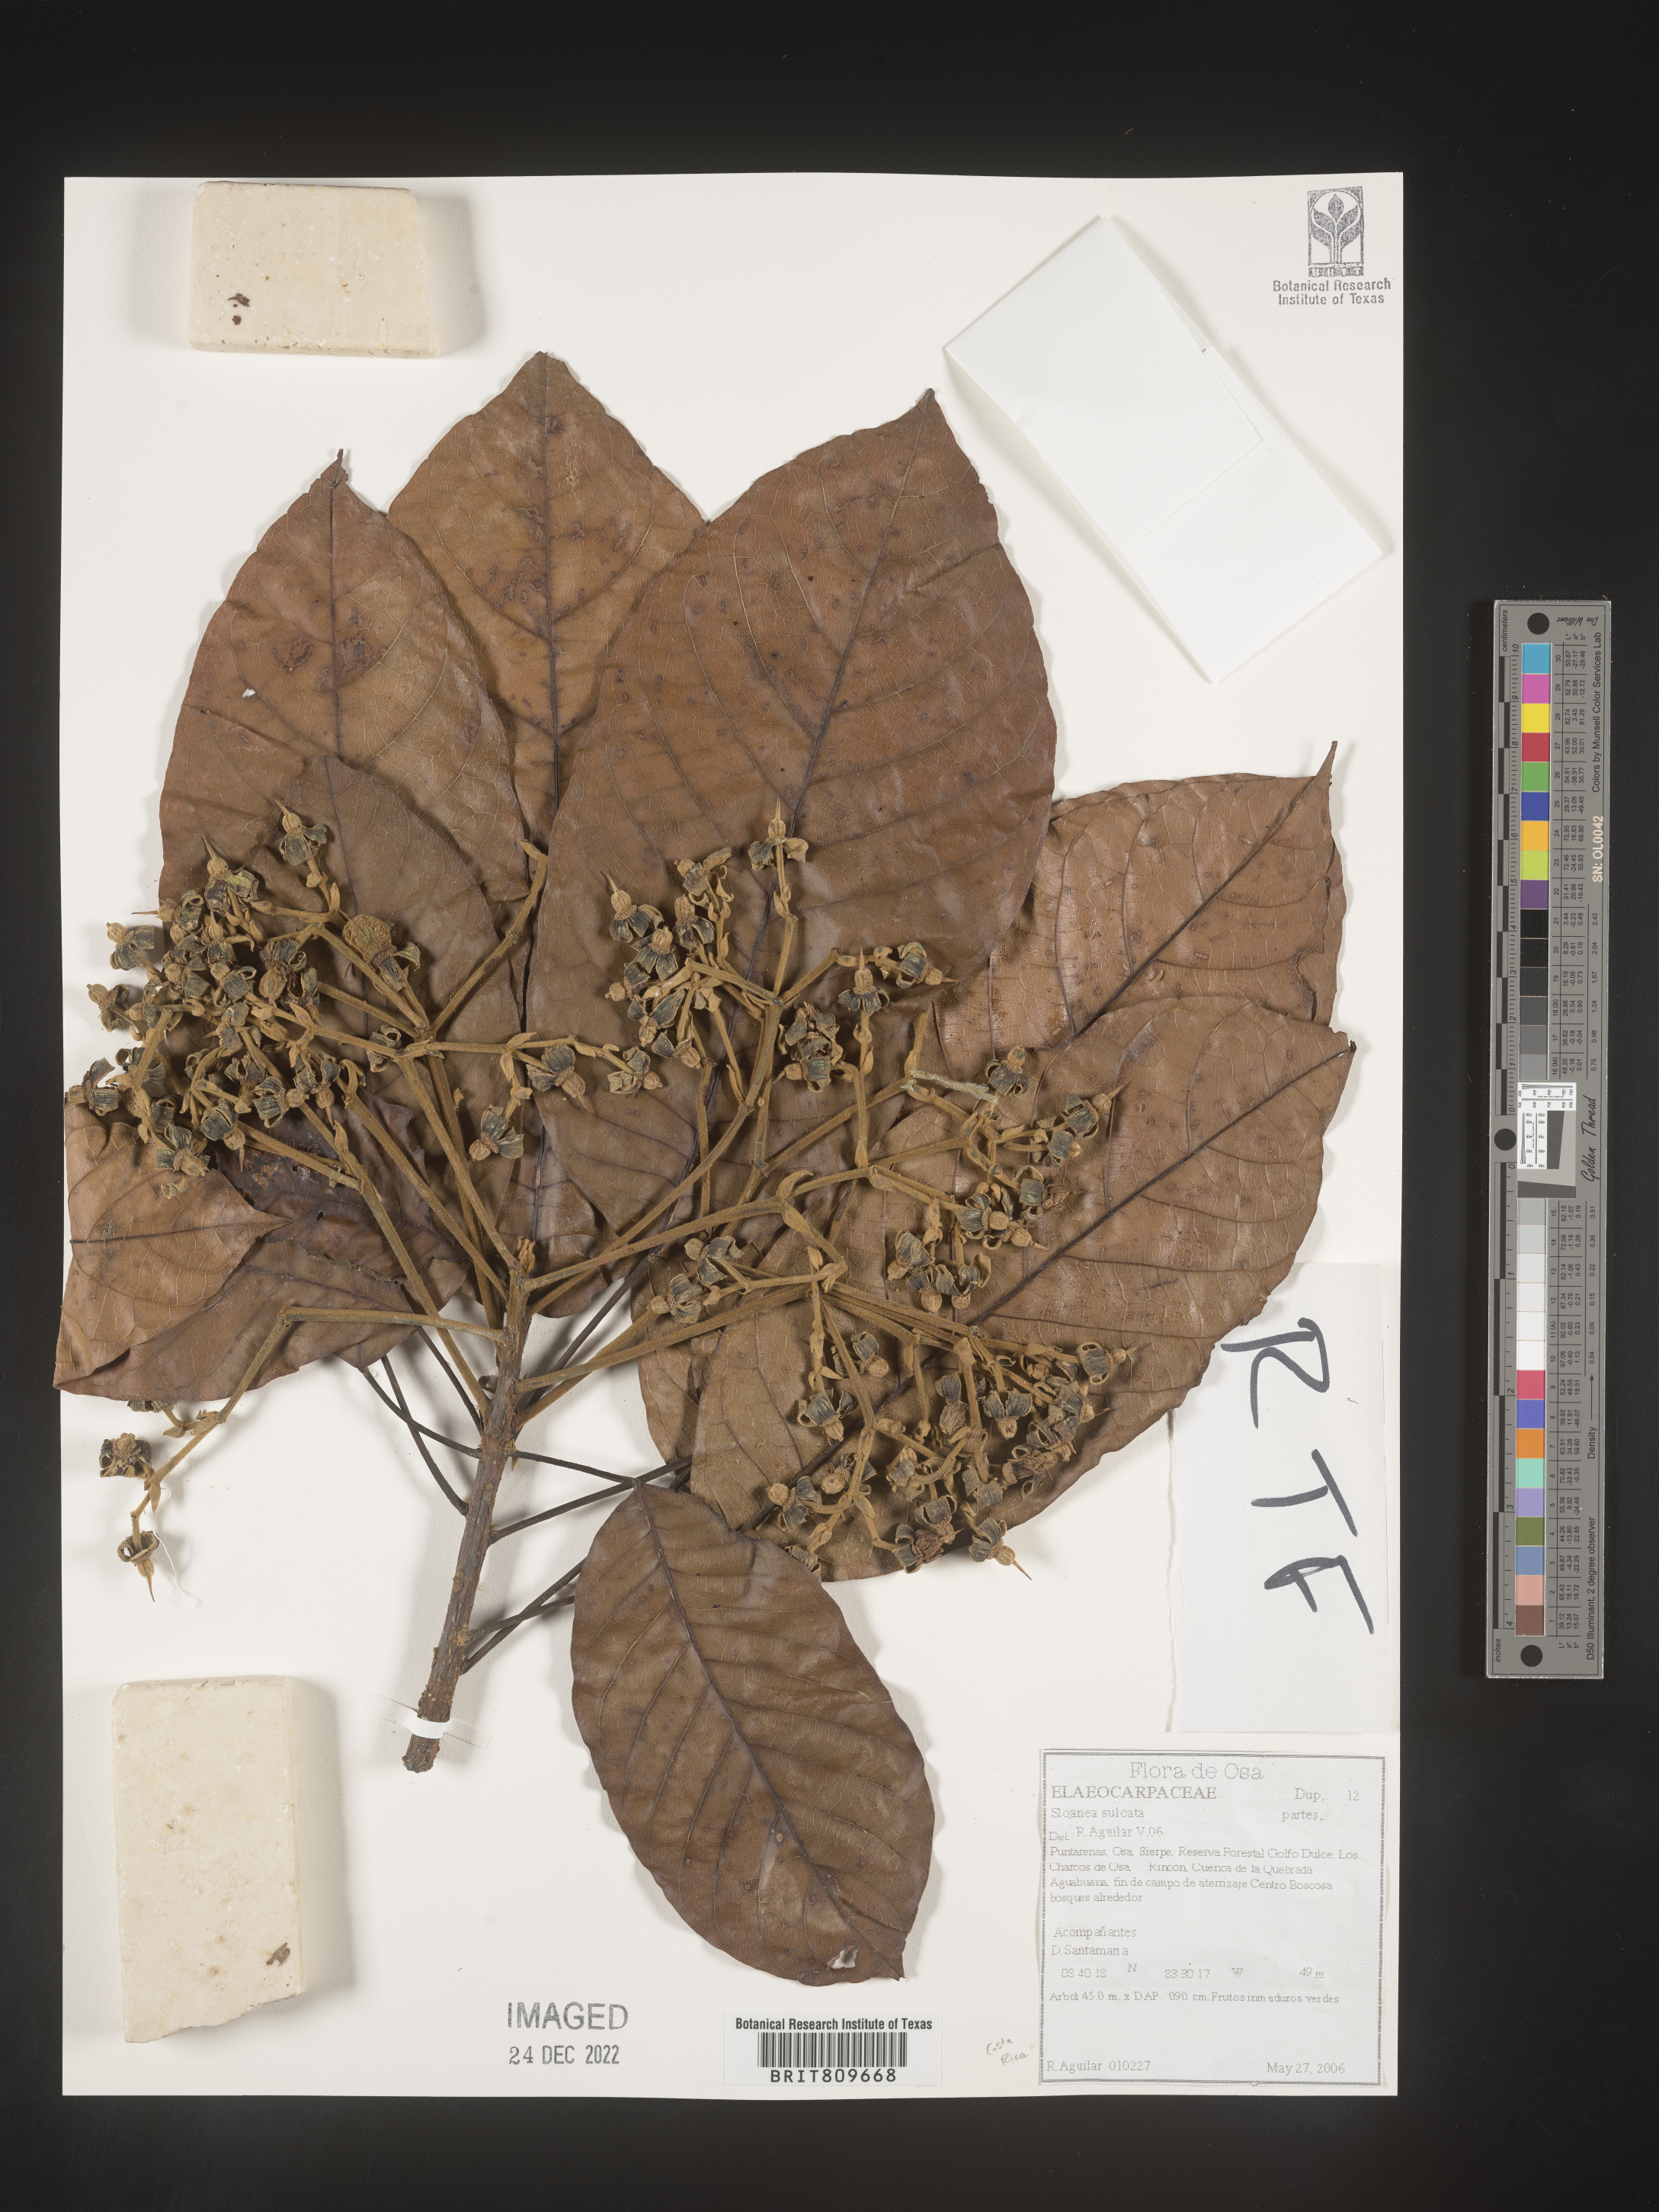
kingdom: Plantae
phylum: Tracheophyta
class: Magnoliopsida
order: Oxalidales
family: Elaeocarpaceae
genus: Sloanea
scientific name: Sloanea
